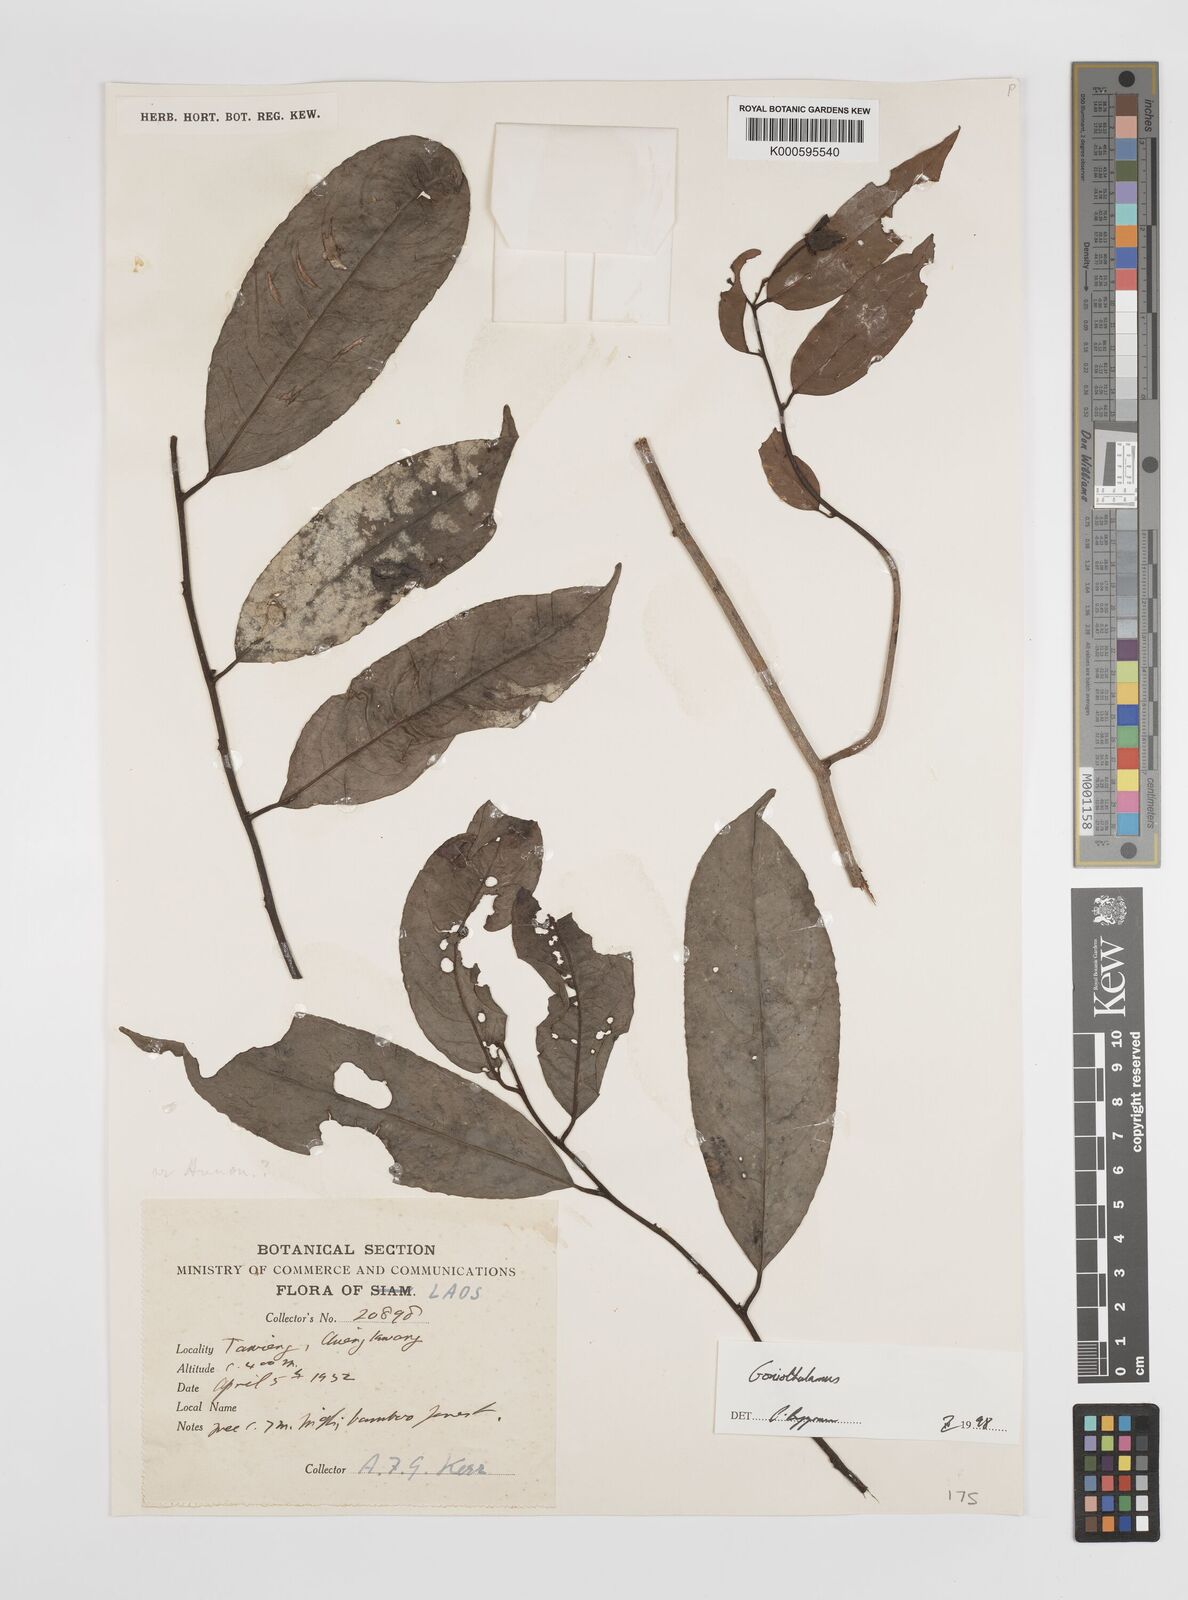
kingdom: Plantae
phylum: Tracheophyta
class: Magnoliopsida
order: Magnoliales
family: Annonaceae
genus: Goniothalamus
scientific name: Goniothalamus
